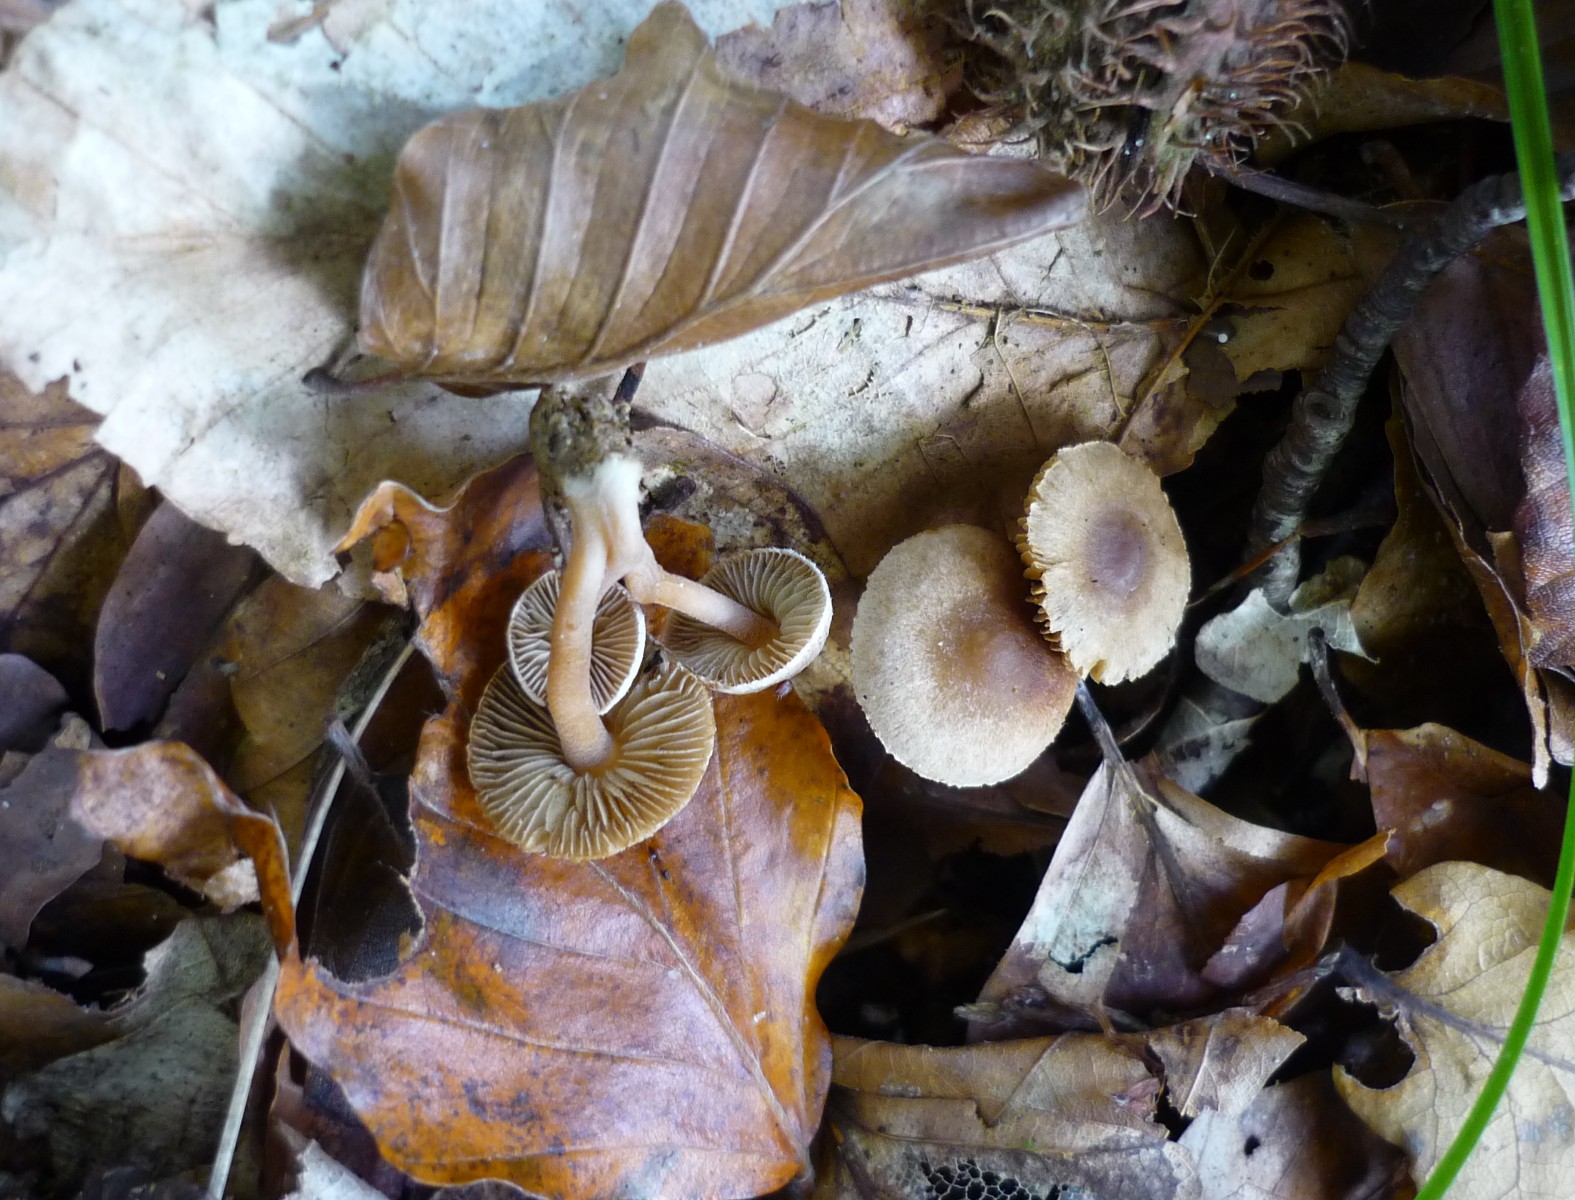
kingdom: Fungi
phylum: Basidiomycota
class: Agaricomycetes
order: Agaricales
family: Inocybaceae
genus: Inocybe
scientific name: Inocybe petiginosa
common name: liden trævlhat
